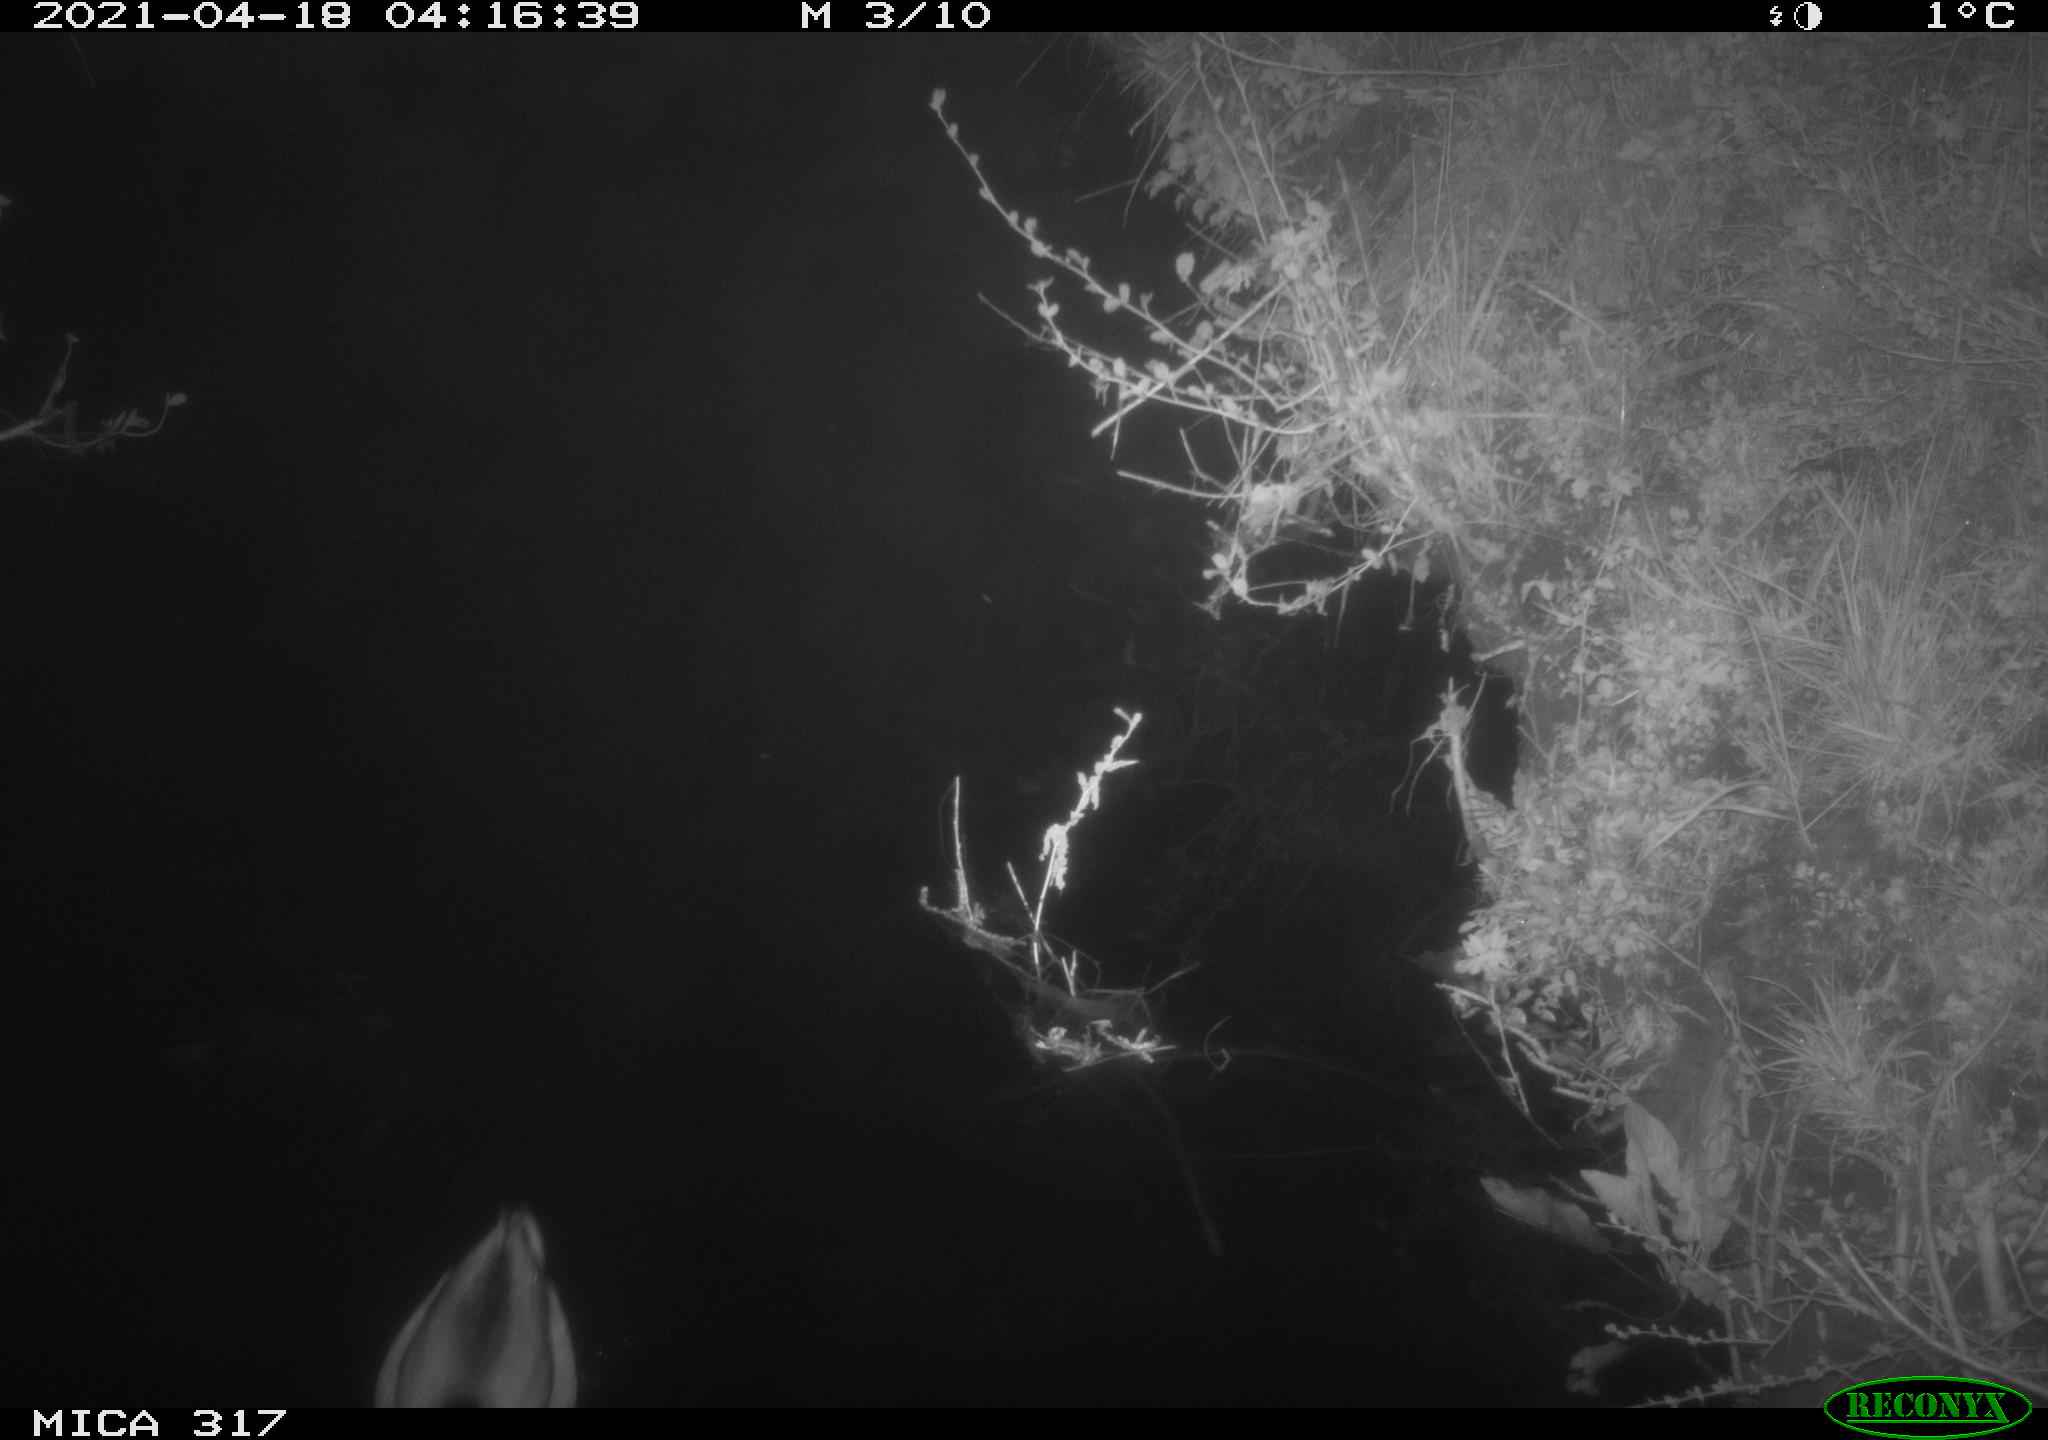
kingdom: Animalia
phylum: Chordata
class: Aves
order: Anseriformes
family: Anatidae
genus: Anas
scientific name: Anas platyrhynchos
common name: Mallard
